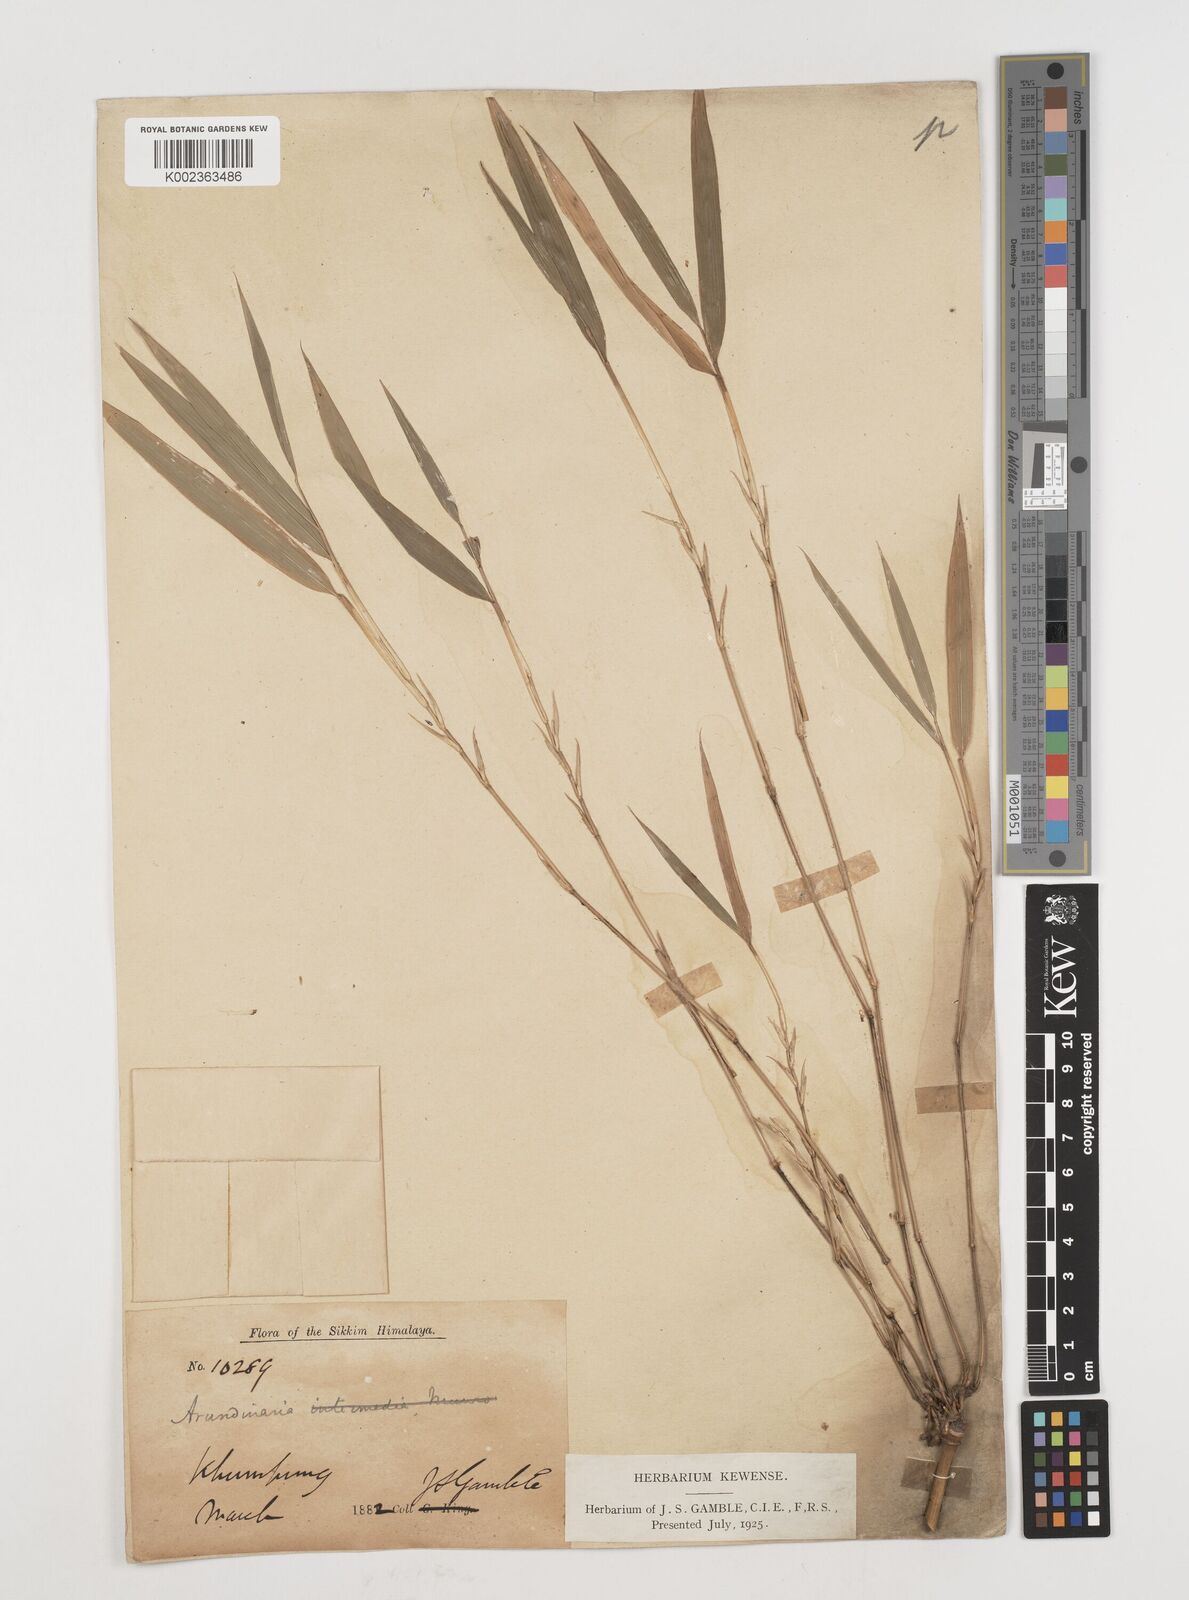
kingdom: Plantae
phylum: Tracheophyta
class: Liliopsida
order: Poales
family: Poaceae
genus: Himalayacalamus
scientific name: Himalayacalamus
